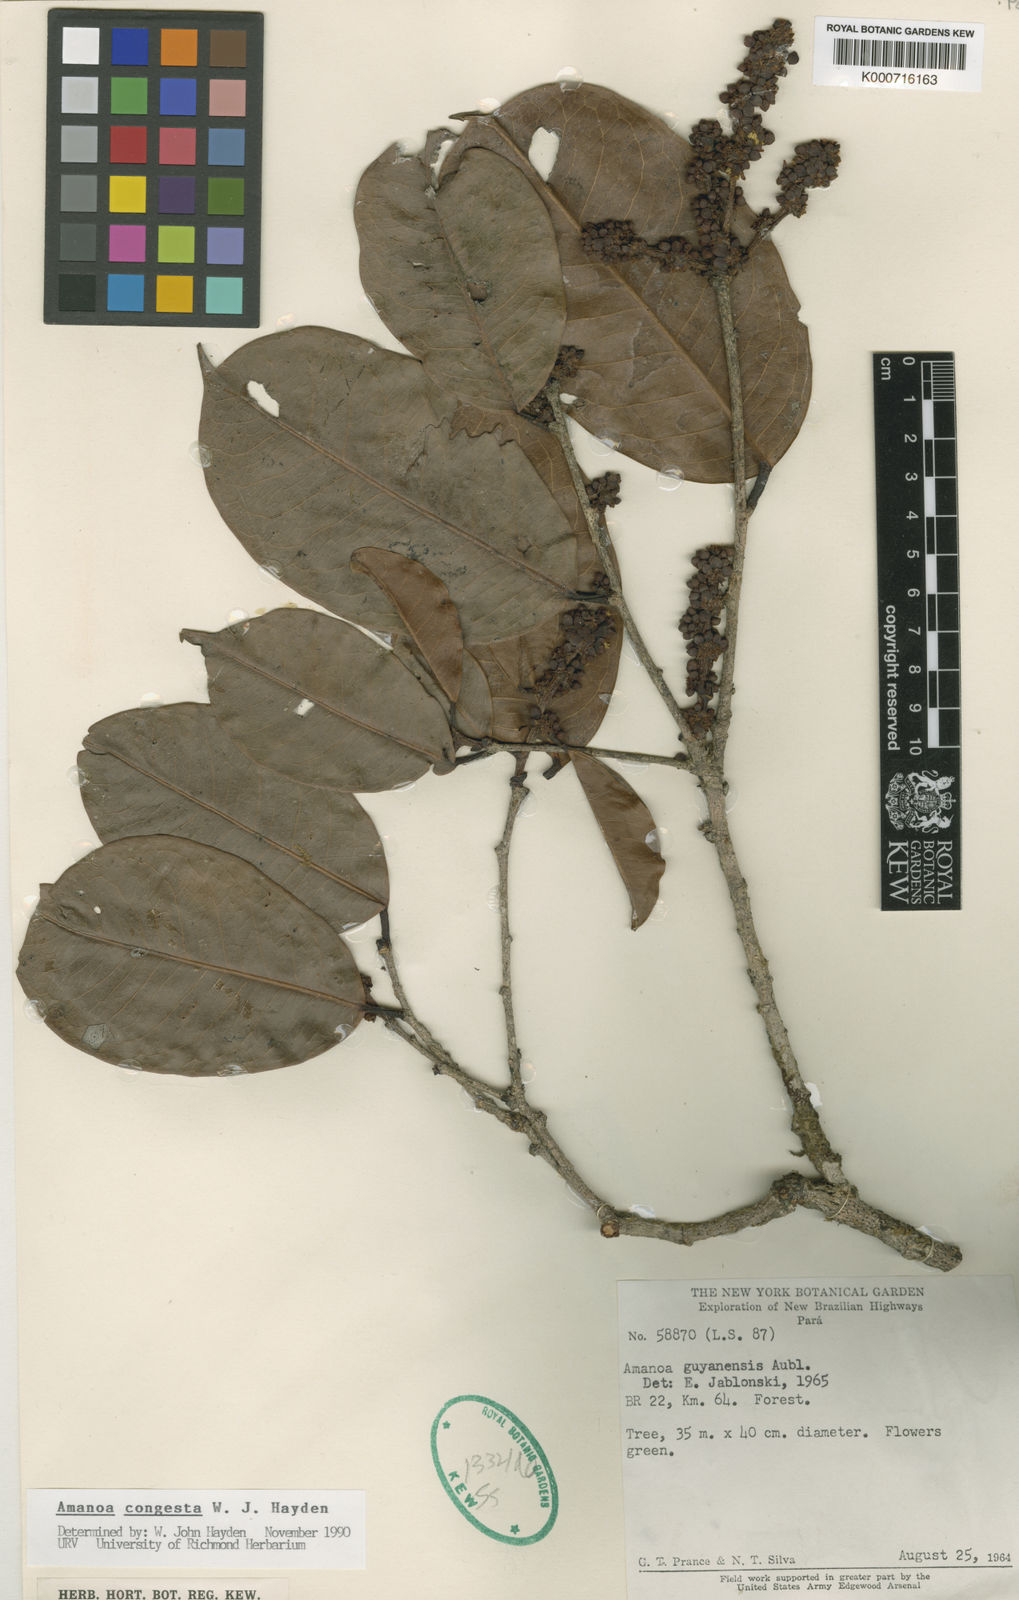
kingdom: Plantae
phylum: Tracheophyta
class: Magnoliopsida
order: Malpighiales
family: Phyllanthaceae
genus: Amanoa
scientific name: Amanoa congesta
